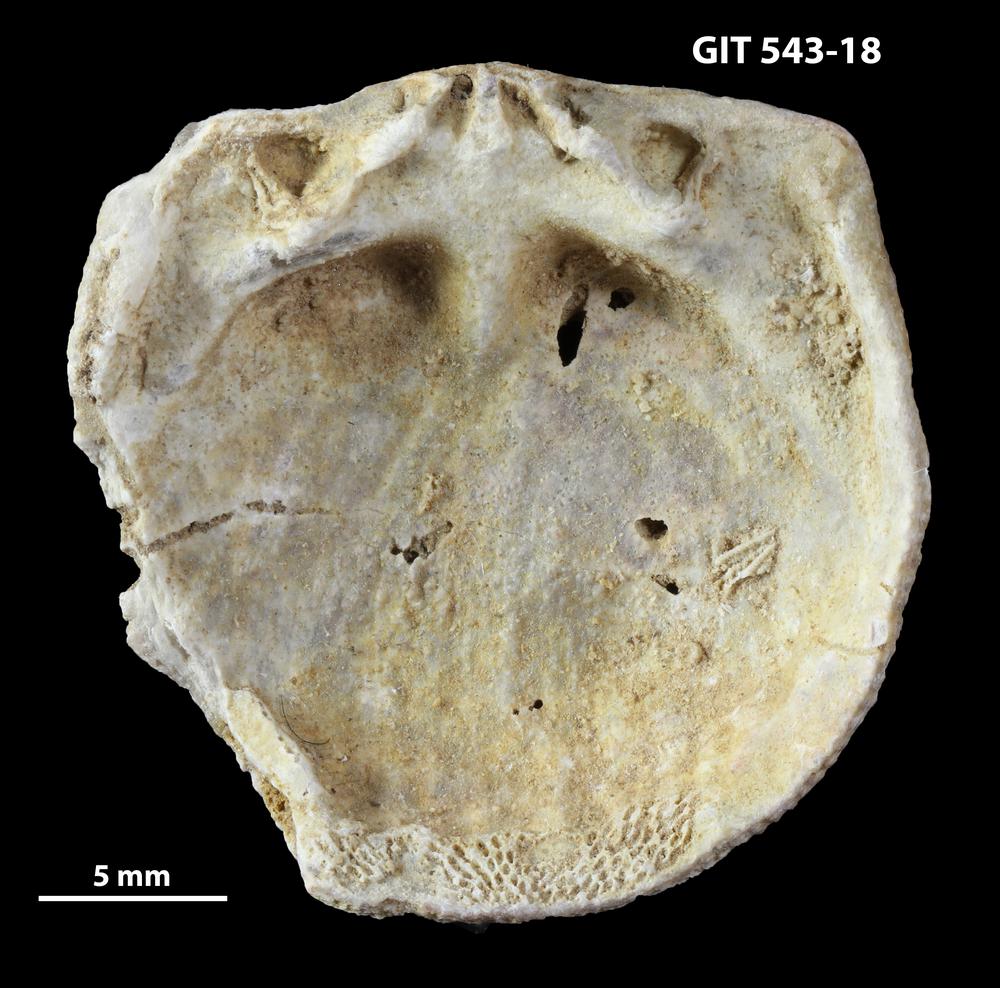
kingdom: Animalia
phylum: Brachiopoda
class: Rhynchonellata
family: Clitambonitidae
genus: Clitambonites
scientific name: Clitambonites
